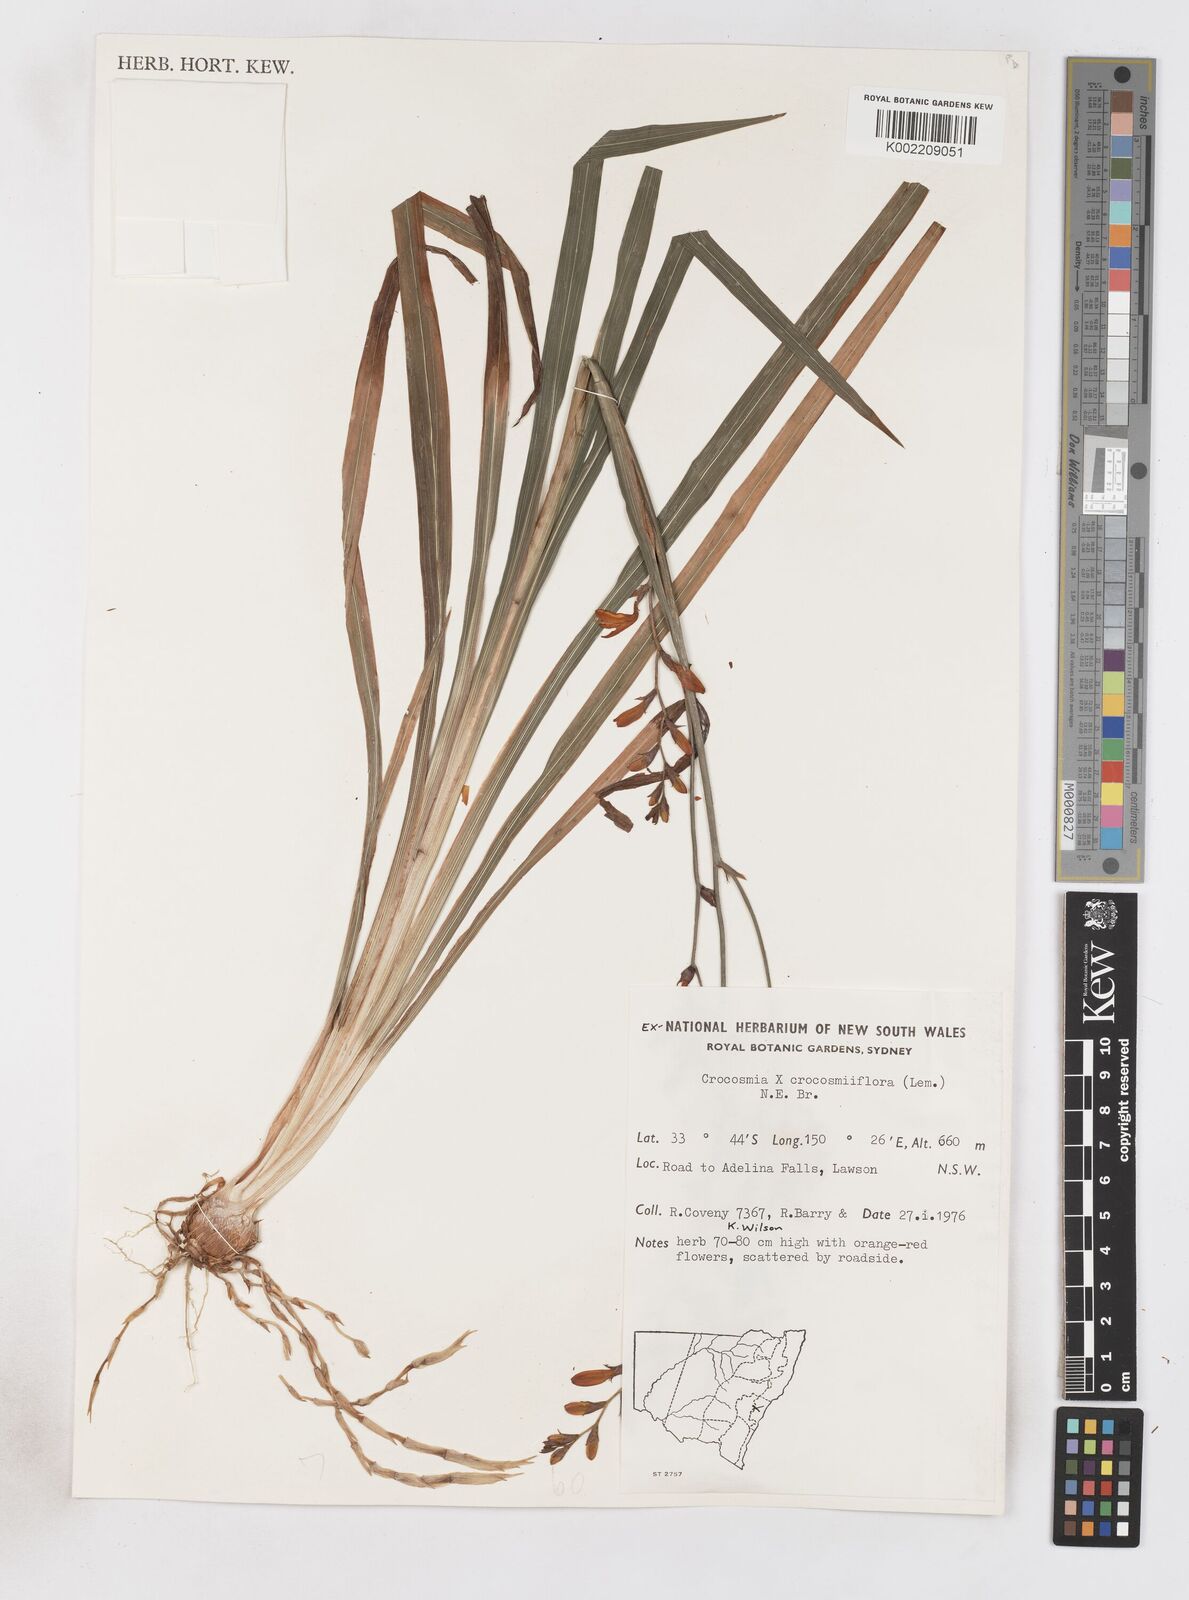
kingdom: Plantae
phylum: Tracheophyta
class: Liliopsida
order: Asparagales
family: Iridaceae
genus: Crocosmia
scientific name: Crocosmia crocosmiiflora
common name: Montbretia
